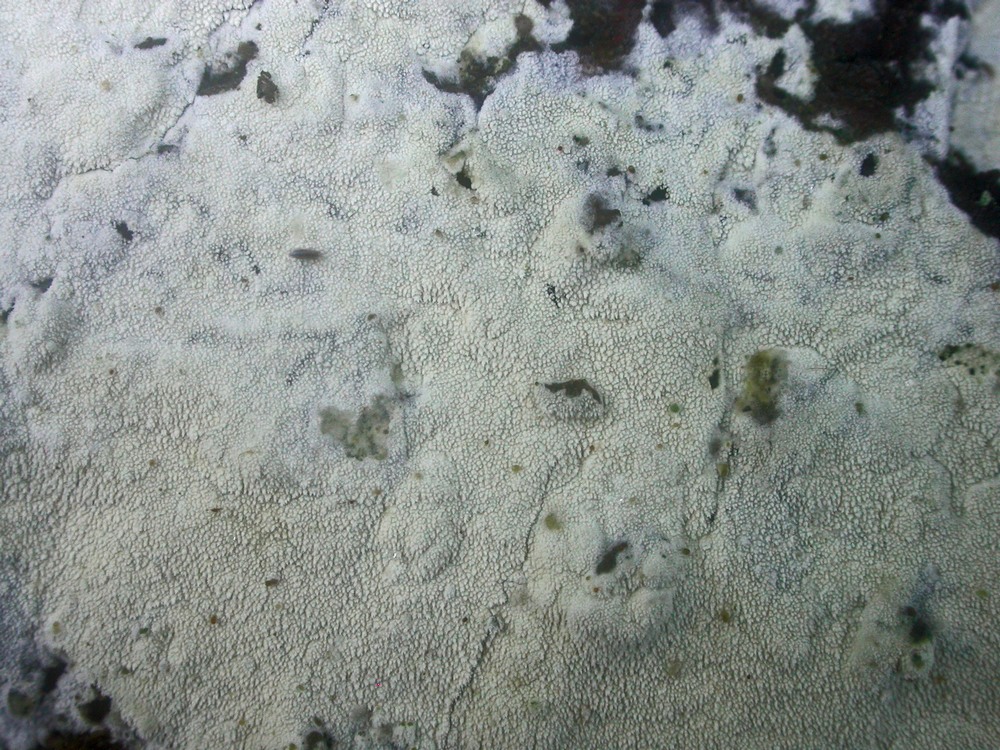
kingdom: Fungi
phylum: Basidiomycota
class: Agaricomycetes
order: Hymenochaetales
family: Schizoporaceae
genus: Xylodon
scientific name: Xylodon nesporii
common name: fintandet tandsvamp
